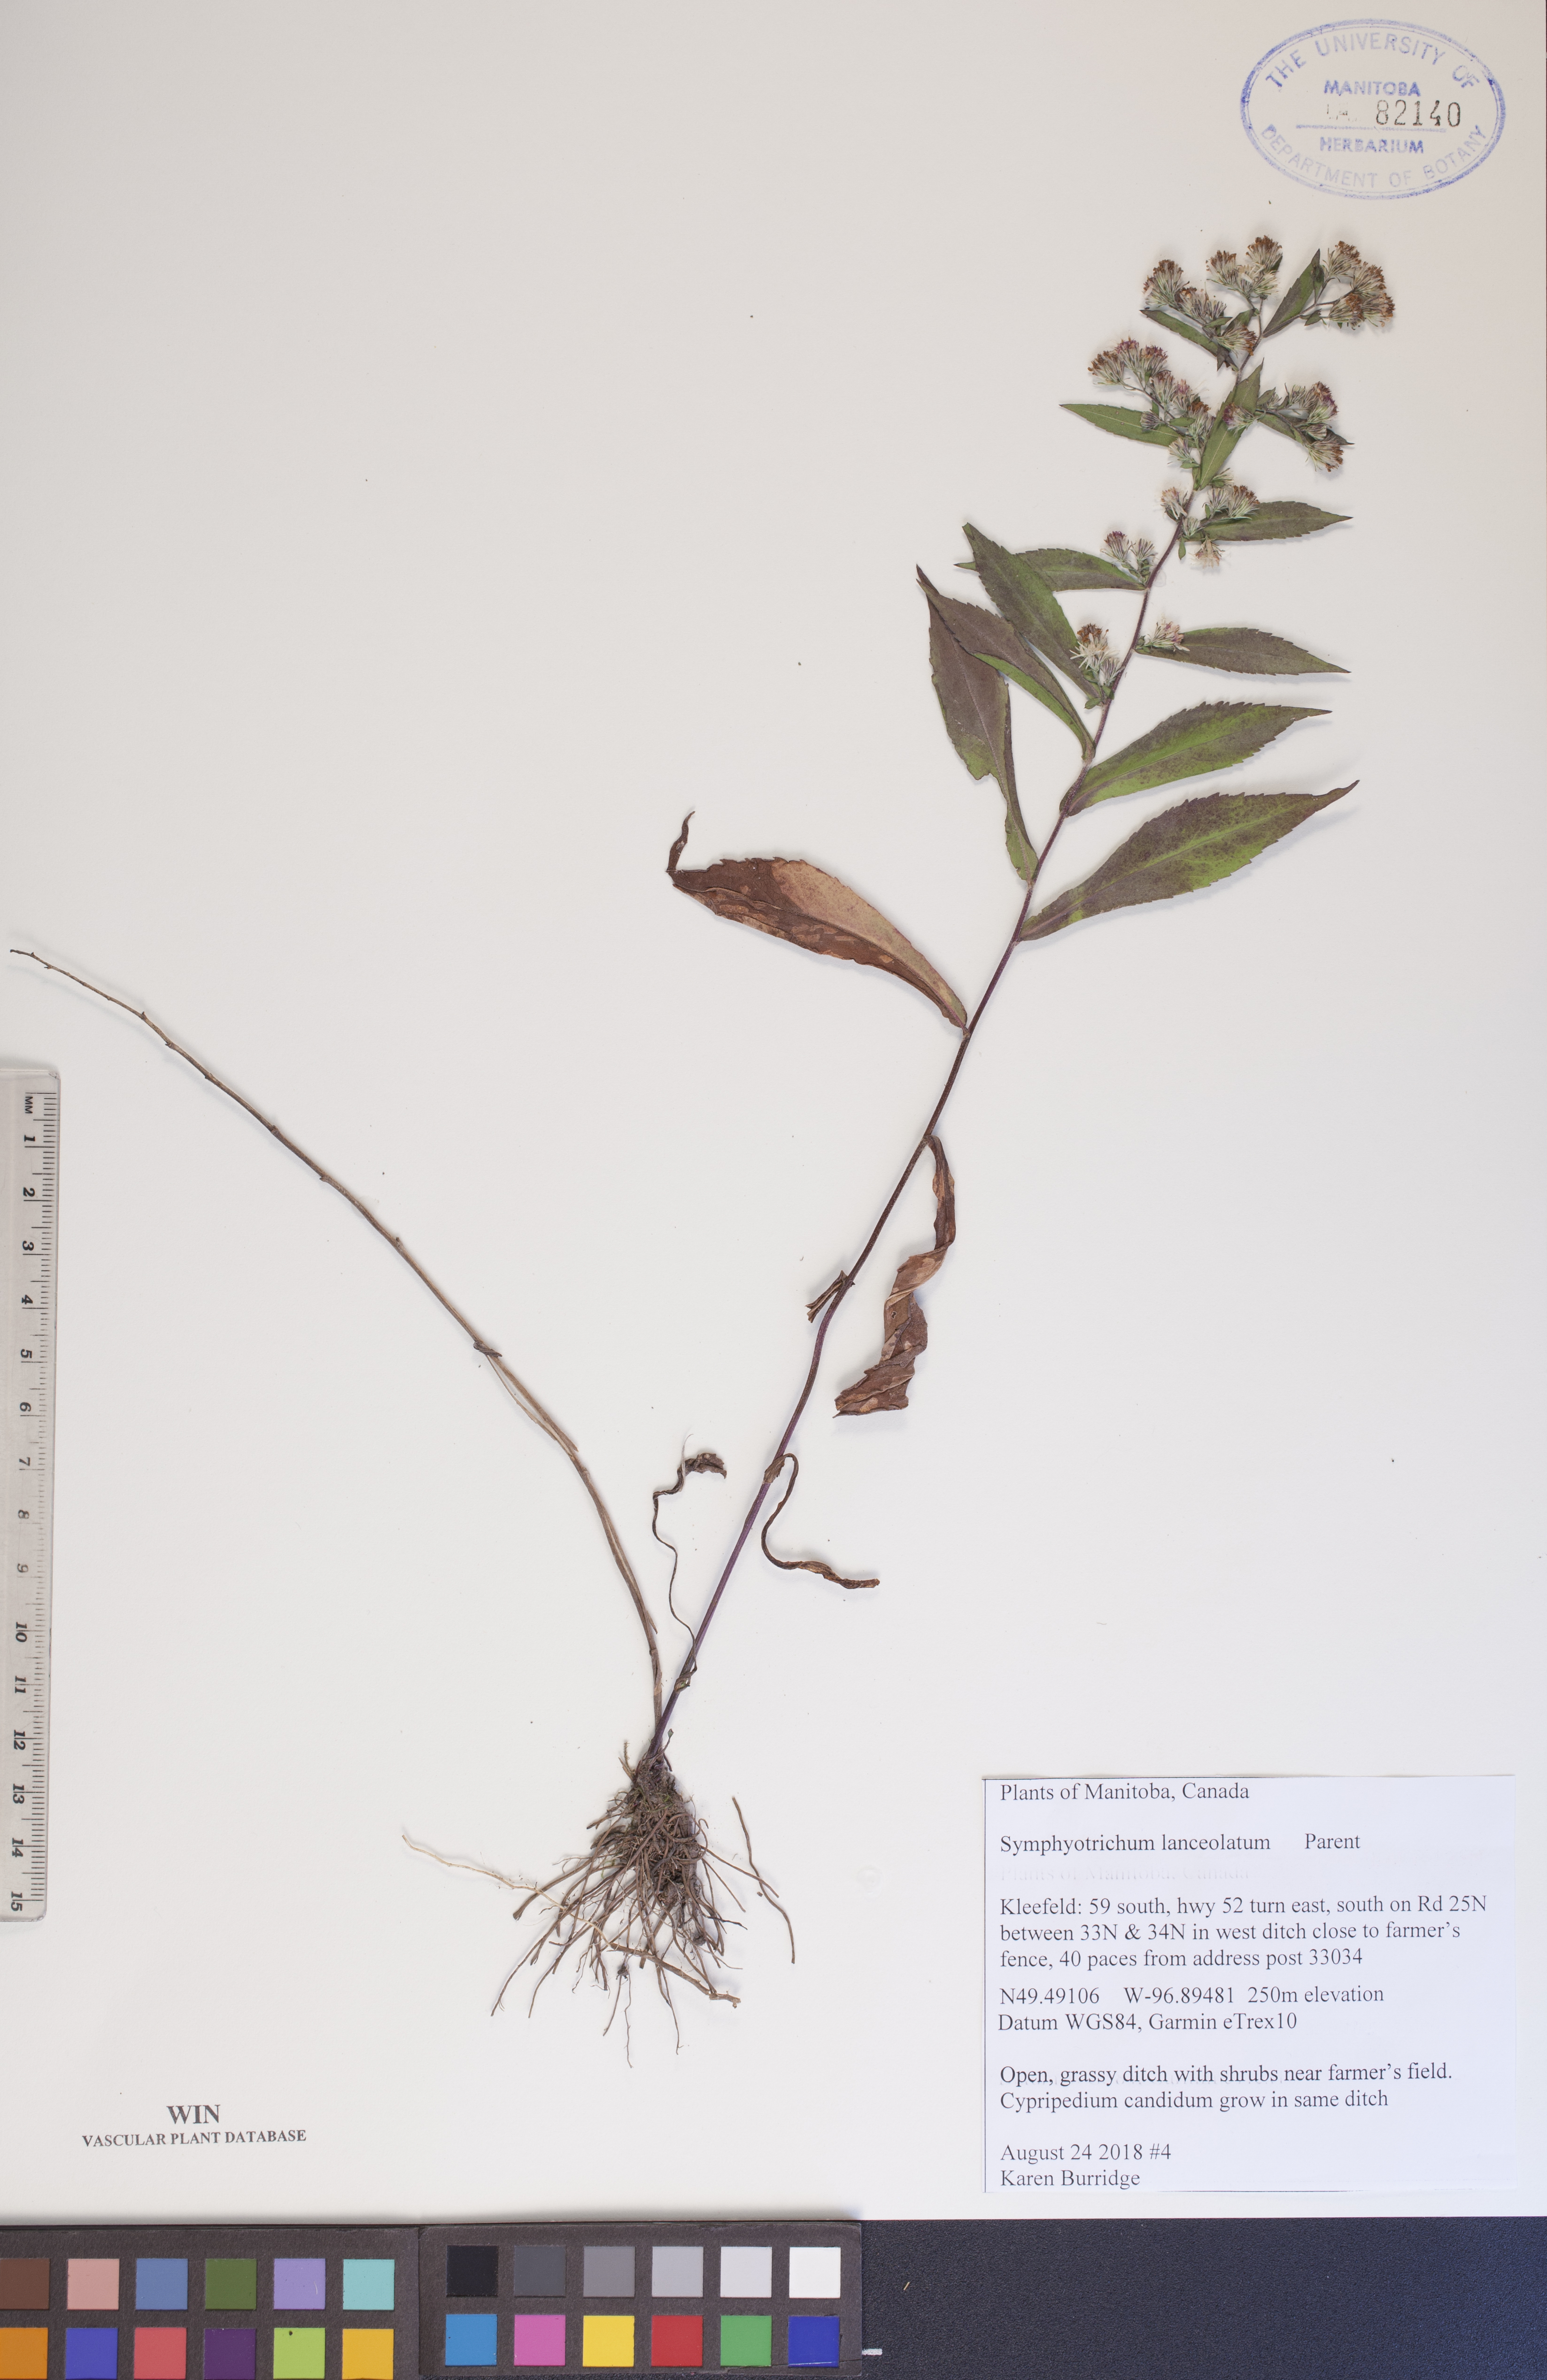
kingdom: Plantae
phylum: Tracheophyta
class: Magnoliopsida
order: Asterales
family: Asteraceae
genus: Symphyotrichum
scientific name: Symphyotrichum lanceolatum
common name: Panicled aster
